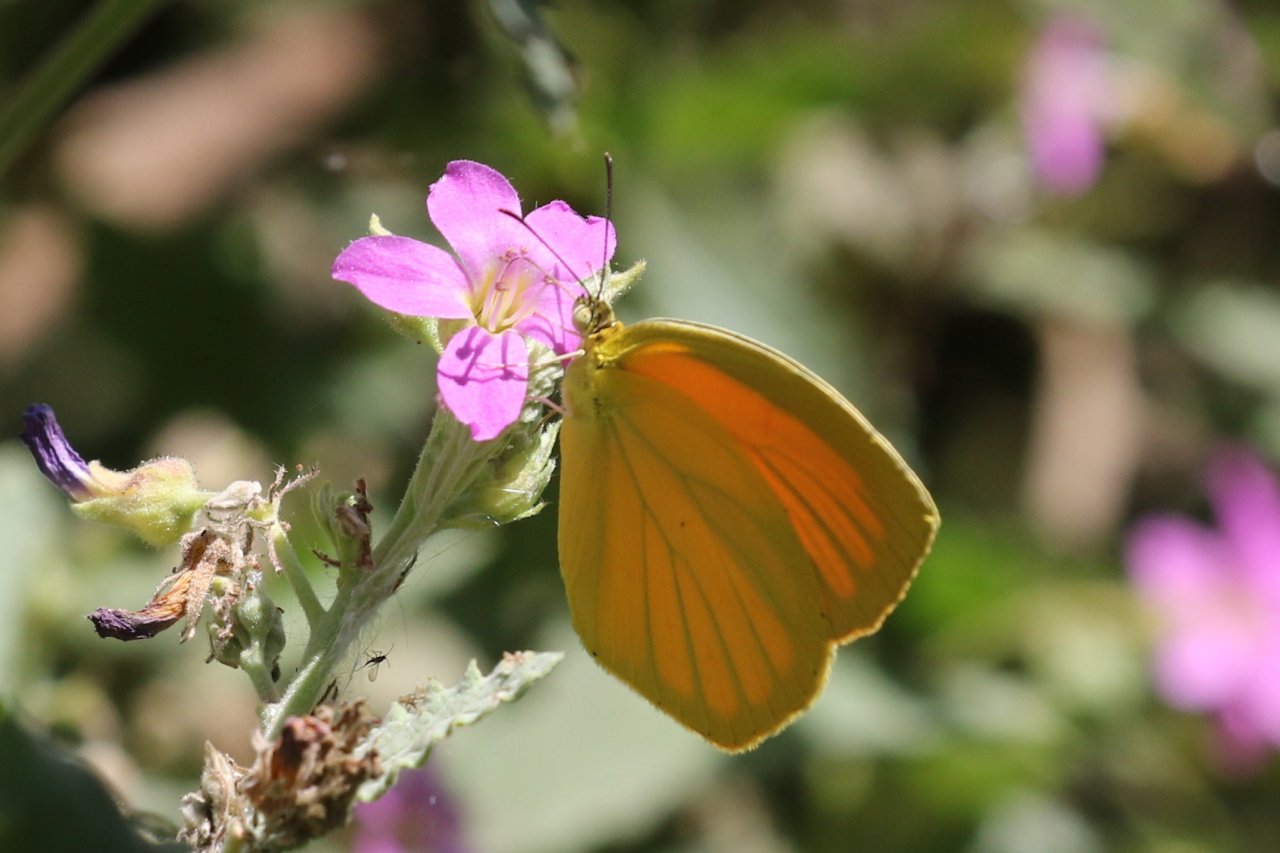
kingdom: Animalia
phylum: Arthropoda
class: Insecta
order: Lepidoptera
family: Pieridae
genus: Pyrisitia
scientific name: Pyrisitia proterpia
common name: Tailed Orange
